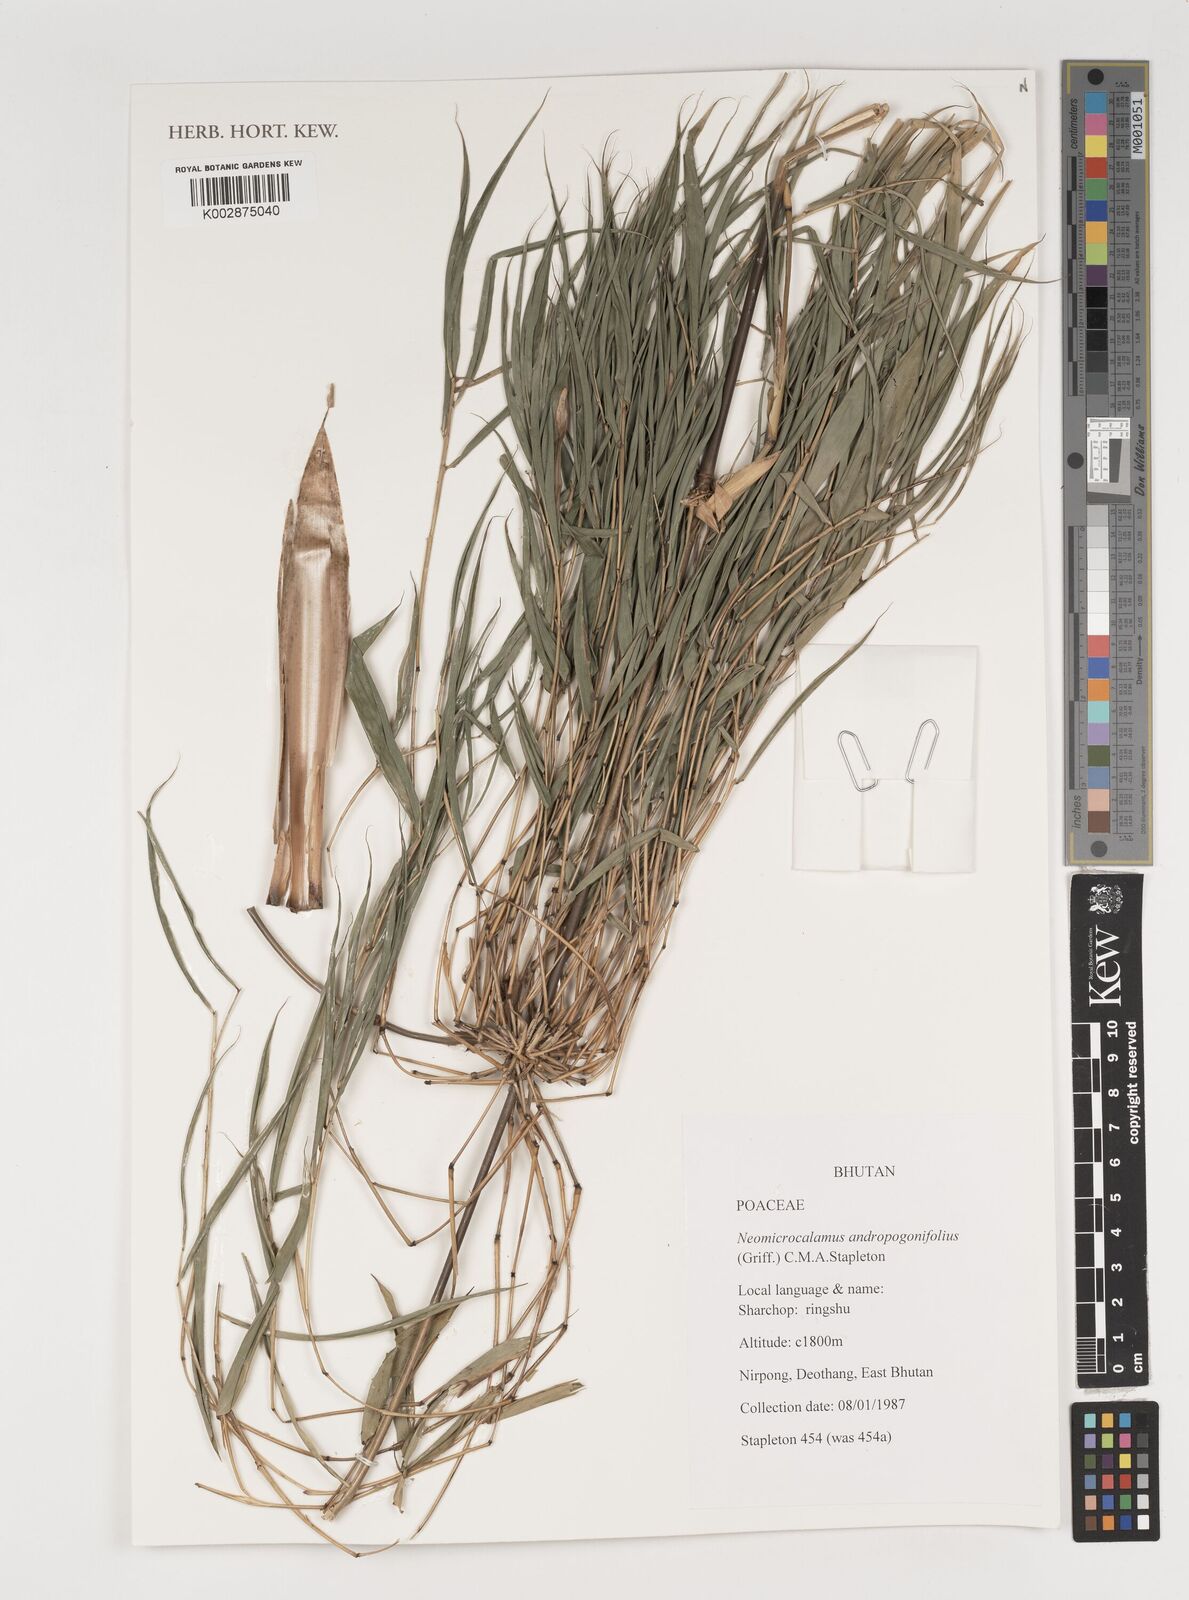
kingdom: Plantae
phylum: Tracheophyta
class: Liliopsida
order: Poales
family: Poaceae
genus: Neomicrocalamus
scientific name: Neomicrocalamus andropogonifolius
